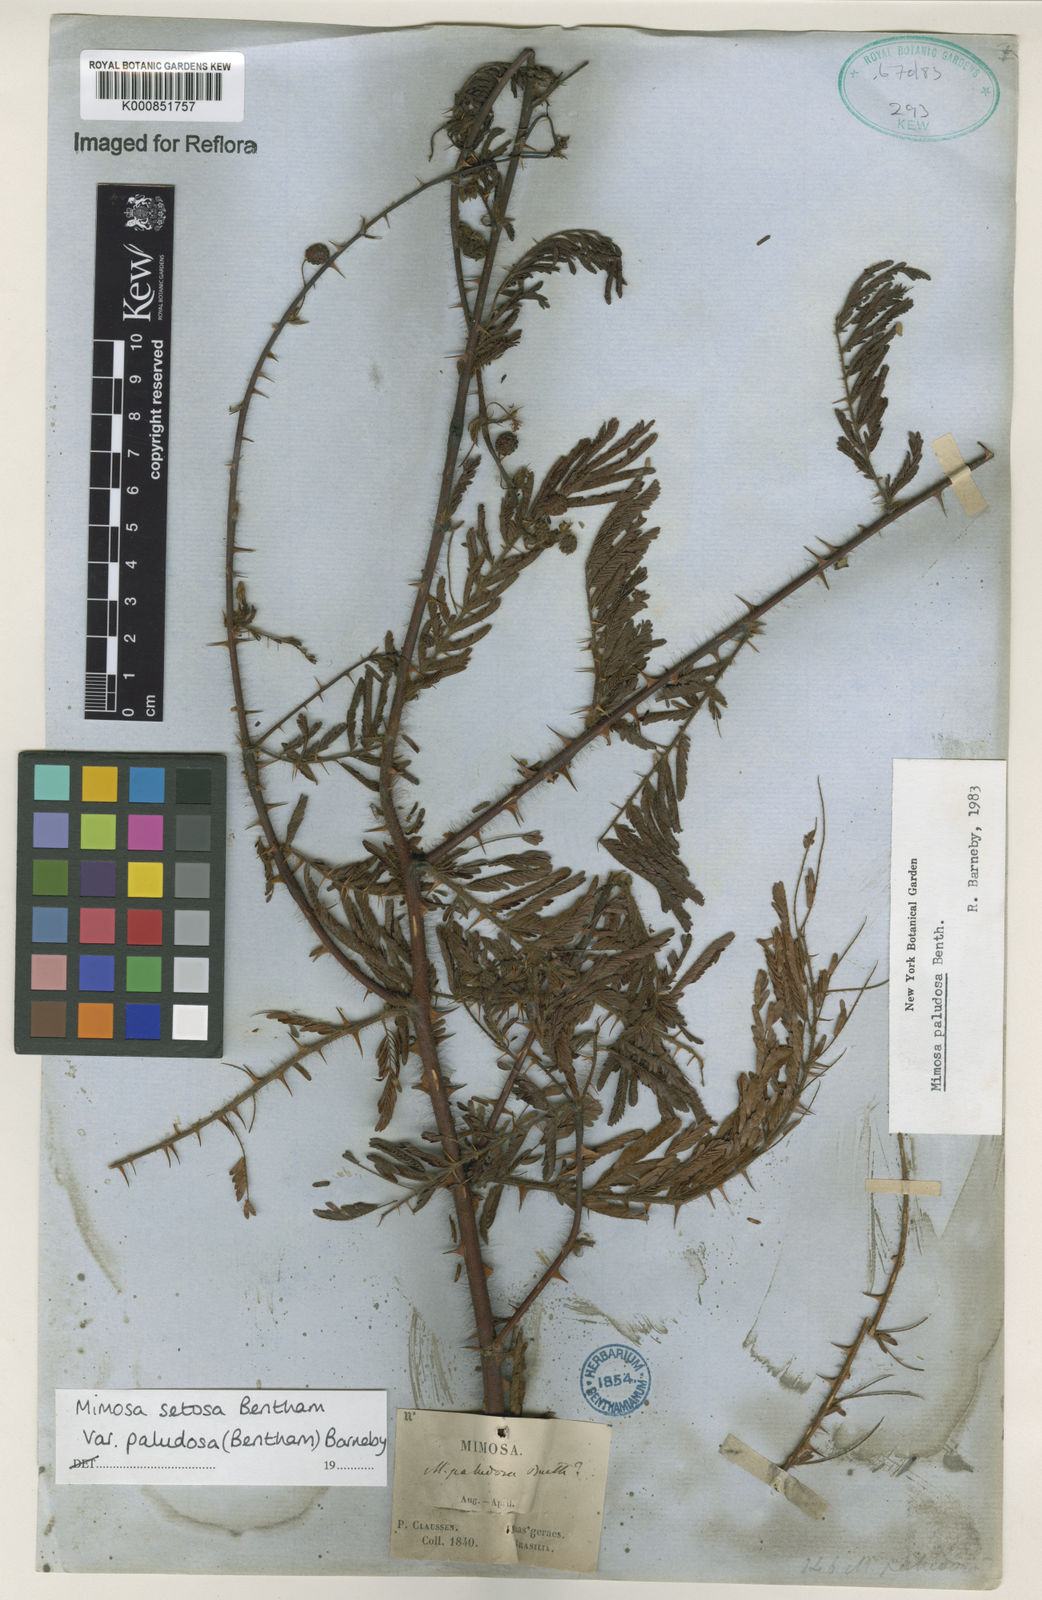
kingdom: Plantae
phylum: Tracheophyta
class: Magnoliopsida
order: Fabales
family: Fabaceae
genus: Mimosa
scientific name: Mimosa paludosa
